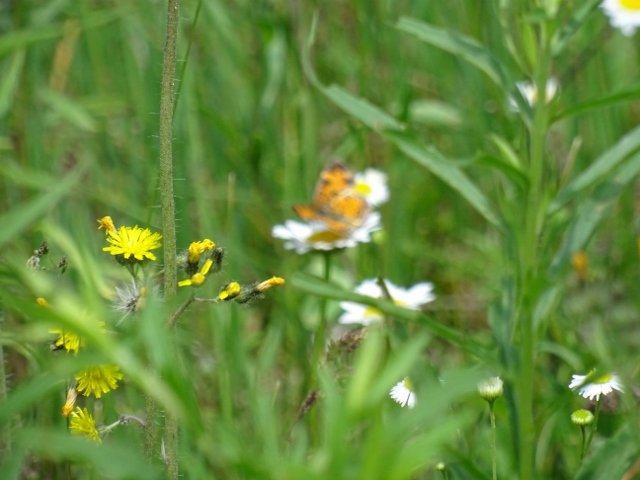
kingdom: Animalia
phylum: Arthropoda
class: Insecta
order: Lepidoptera
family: Nymphalidae
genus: Phyciodes
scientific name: Phyciodes
